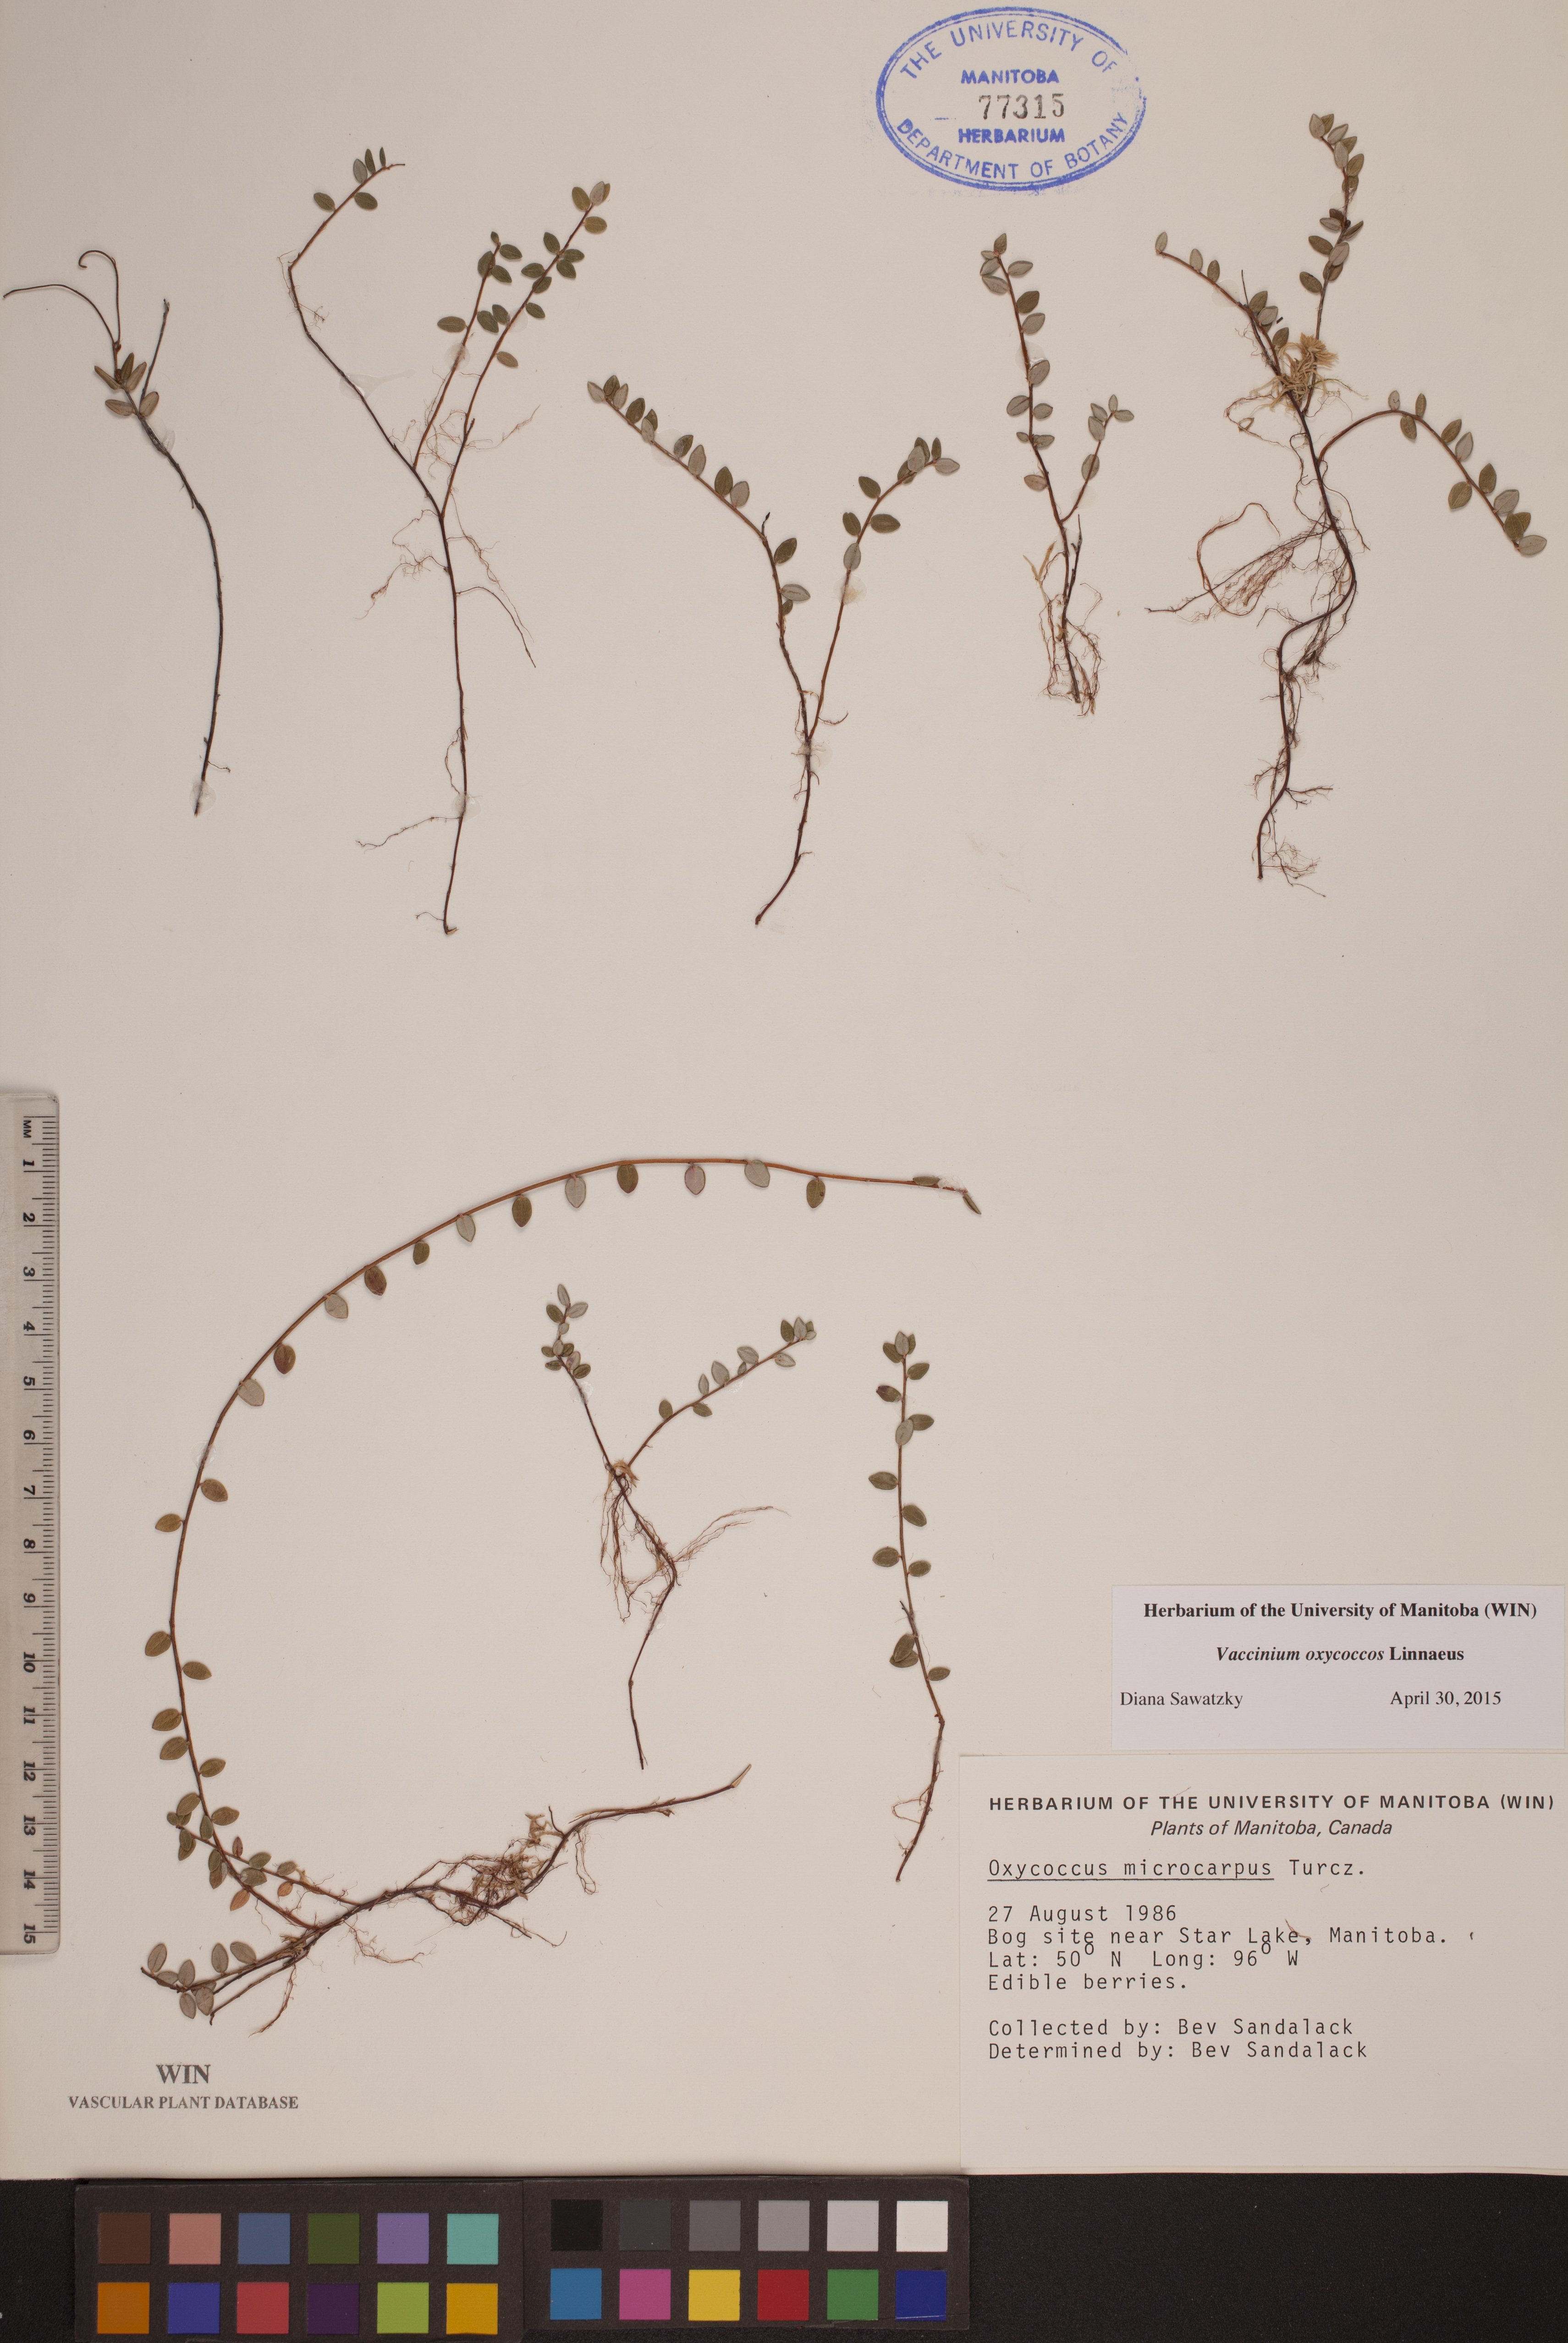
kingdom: Plantae
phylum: Tracheophyta
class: Magnoliopsida
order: Ericales
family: Ericaceae
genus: Vaccinium
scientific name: Vaccinium oxycoccos
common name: Cranberry
